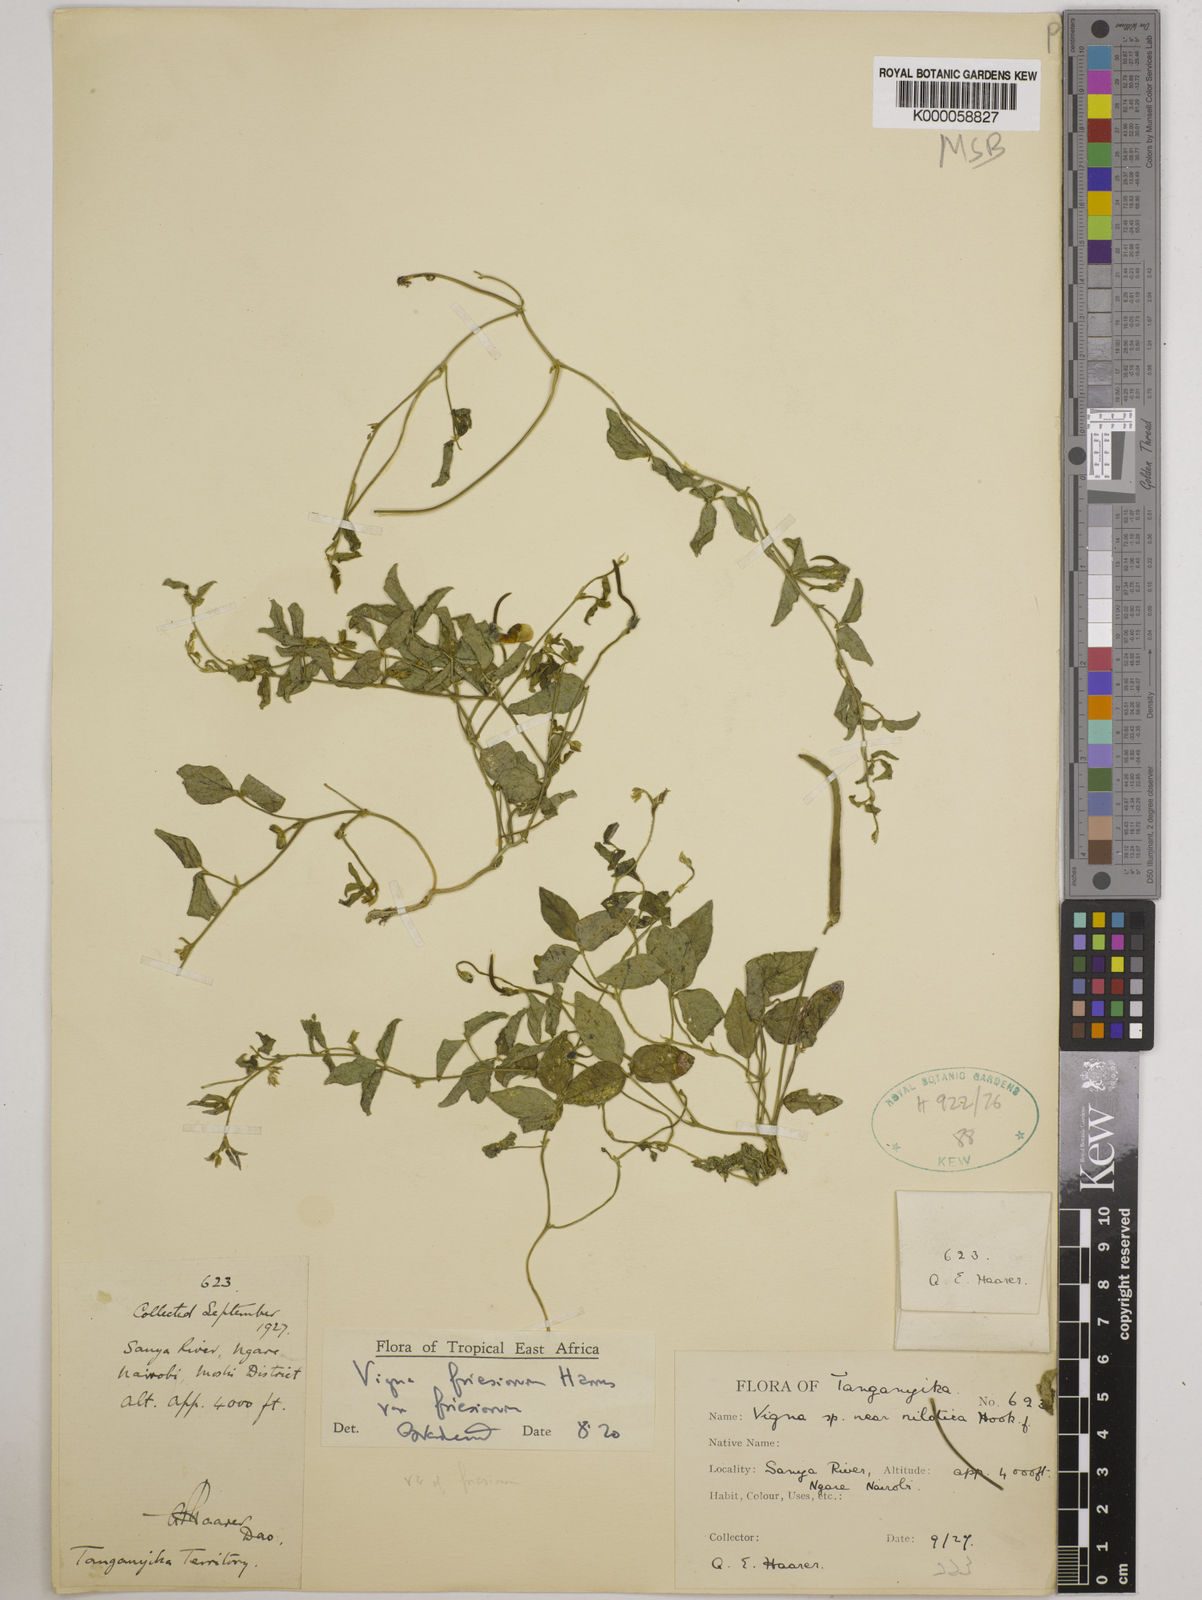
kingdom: Plantae
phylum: Tracheophyta
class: Magnoliopsida
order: Fabales
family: Fabaceae
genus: Vigna
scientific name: Vigna friesiorum
